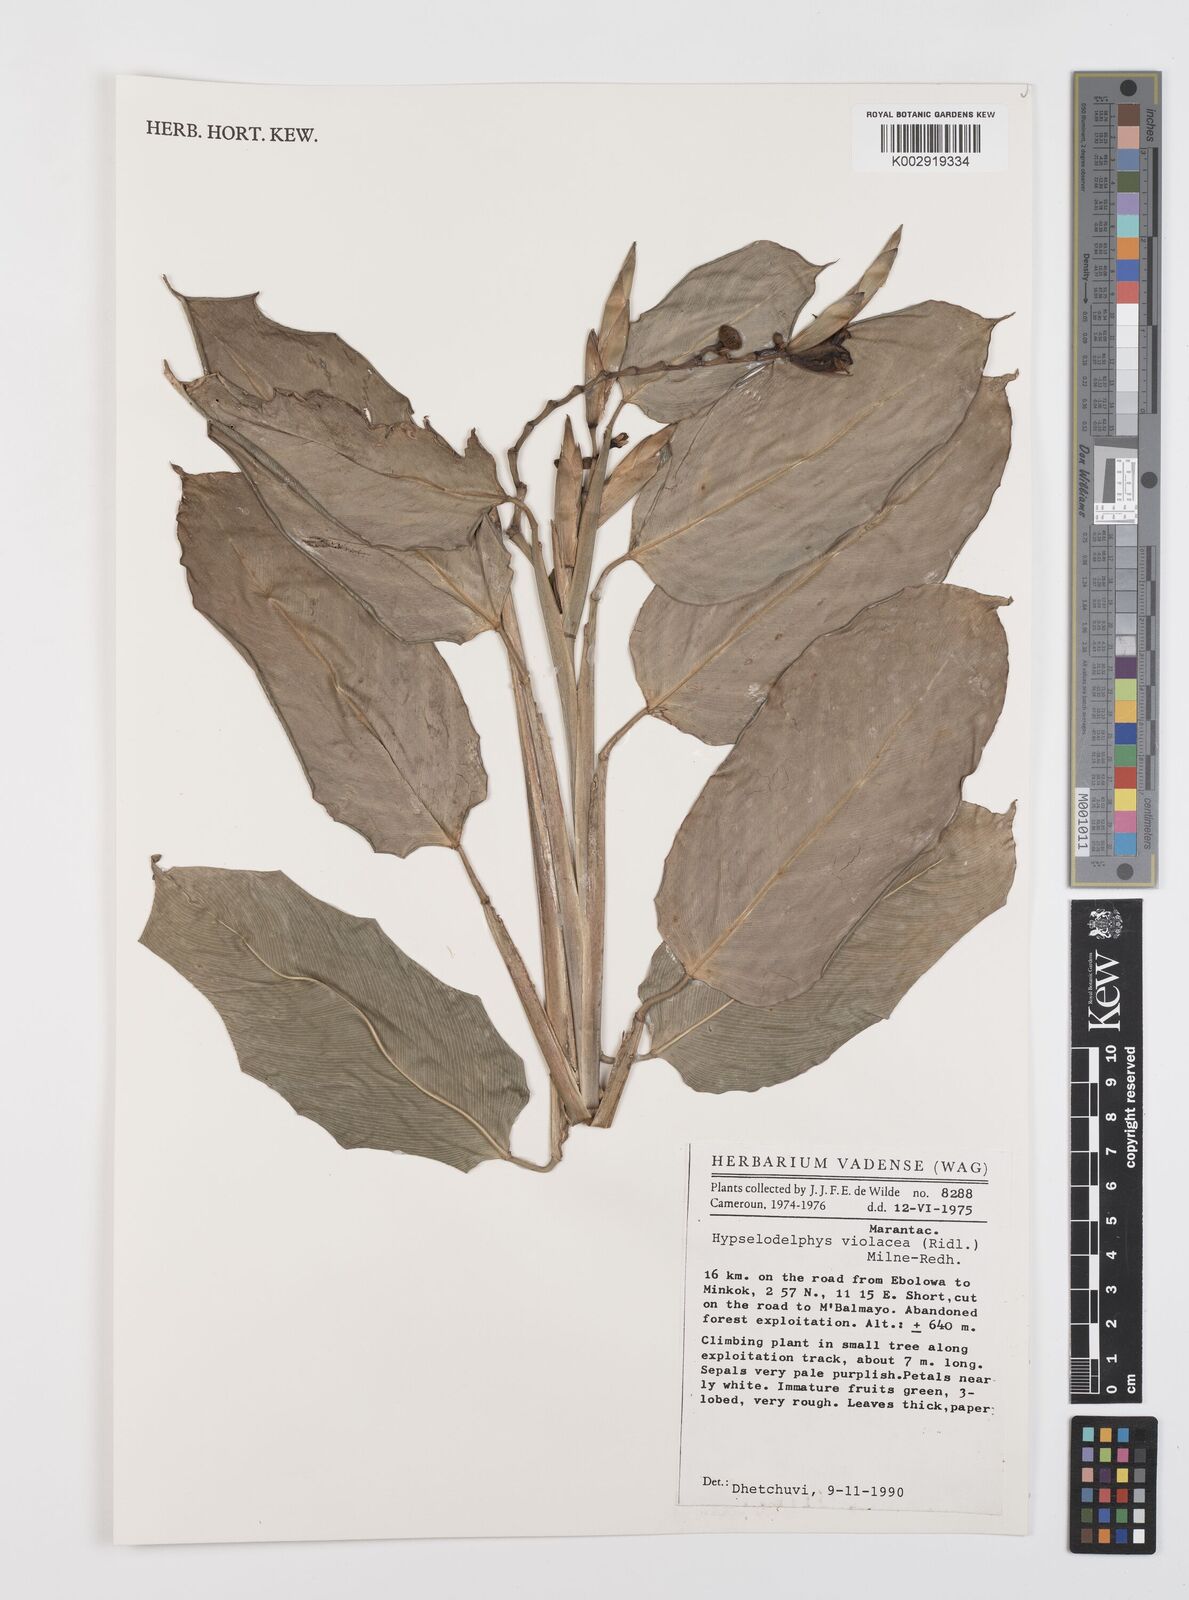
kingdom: Plantae
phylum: Tracheophyta
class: Liliopsida
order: Zingiberales
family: Marantaceae
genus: Hypselodelphys
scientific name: Hypselodelphys violacea
